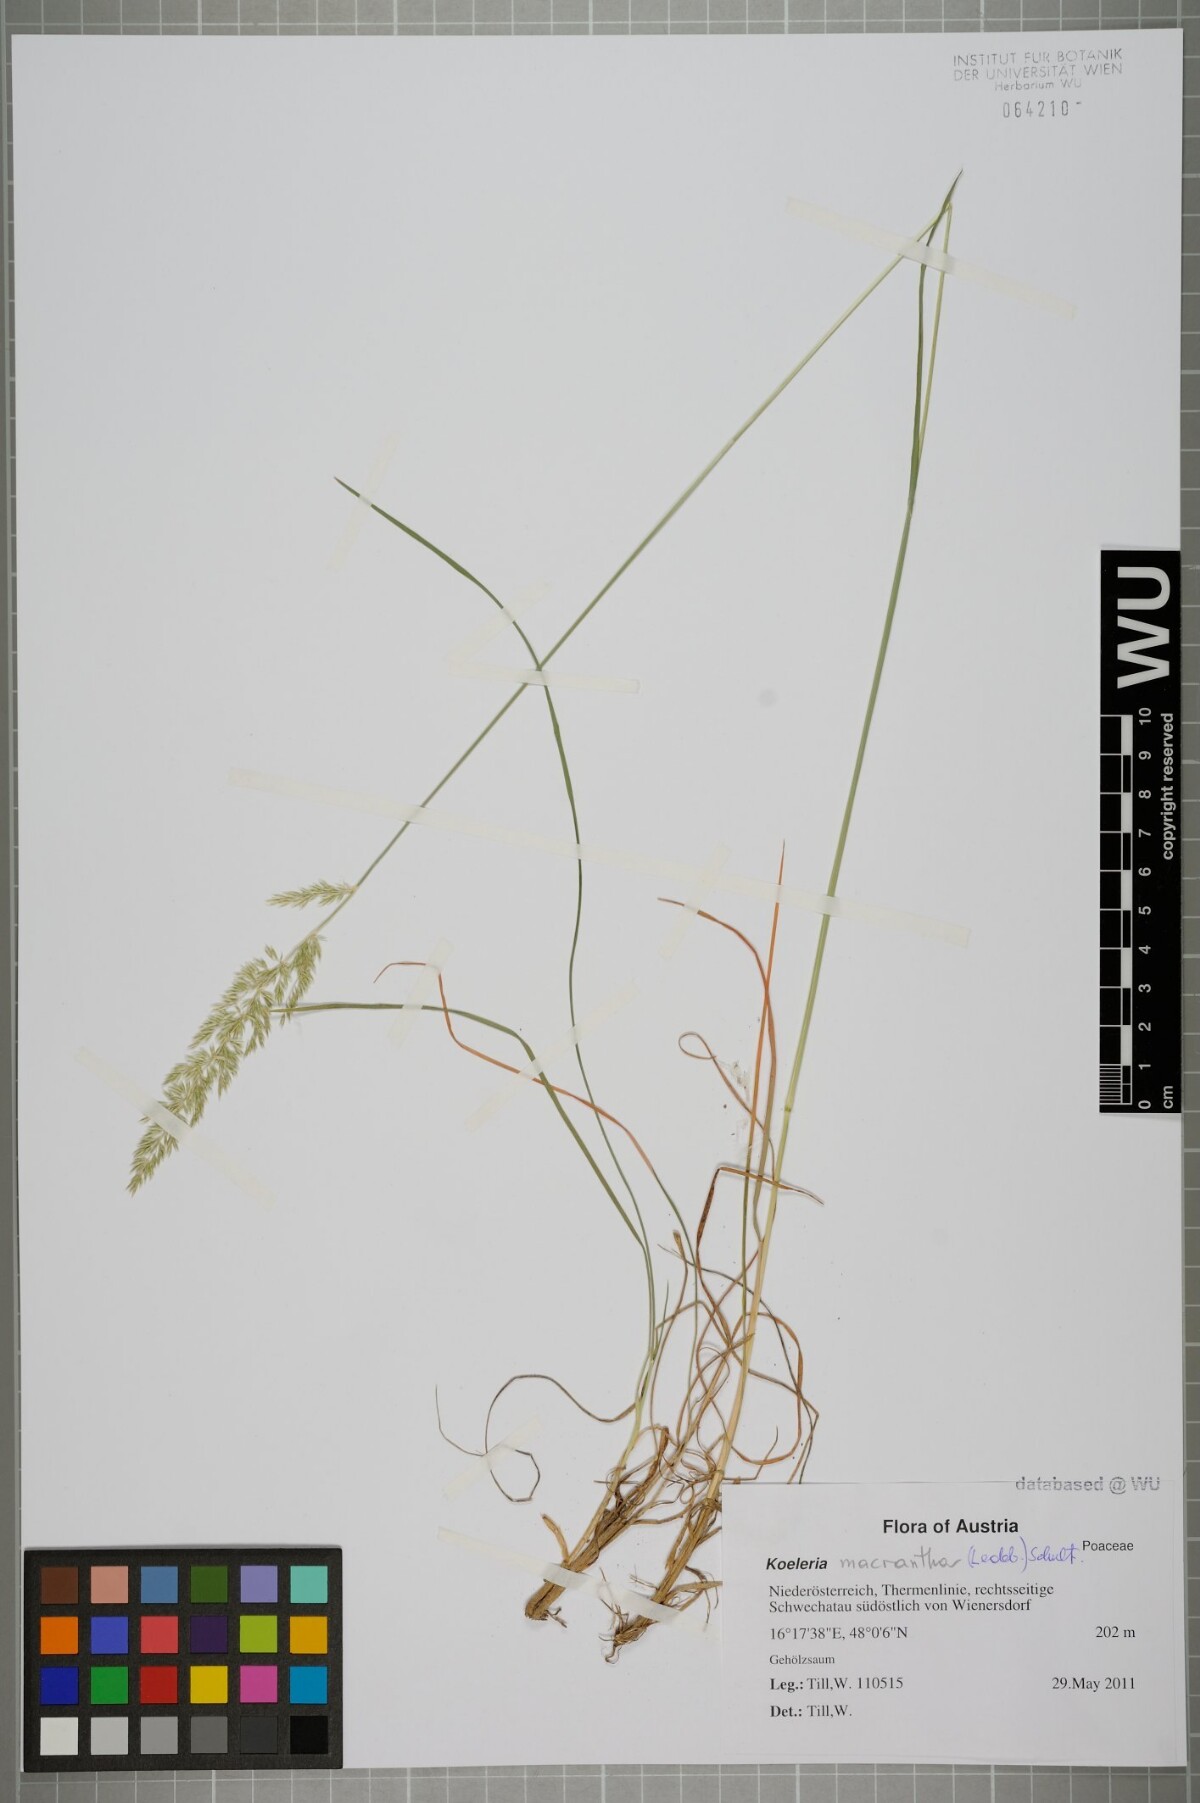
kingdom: Plantae
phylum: Tracheophyta
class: Liliopsida
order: Poales
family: Poaceae
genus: Koeleria
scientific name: Koeleria macrantha
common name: Crested hair-grass
